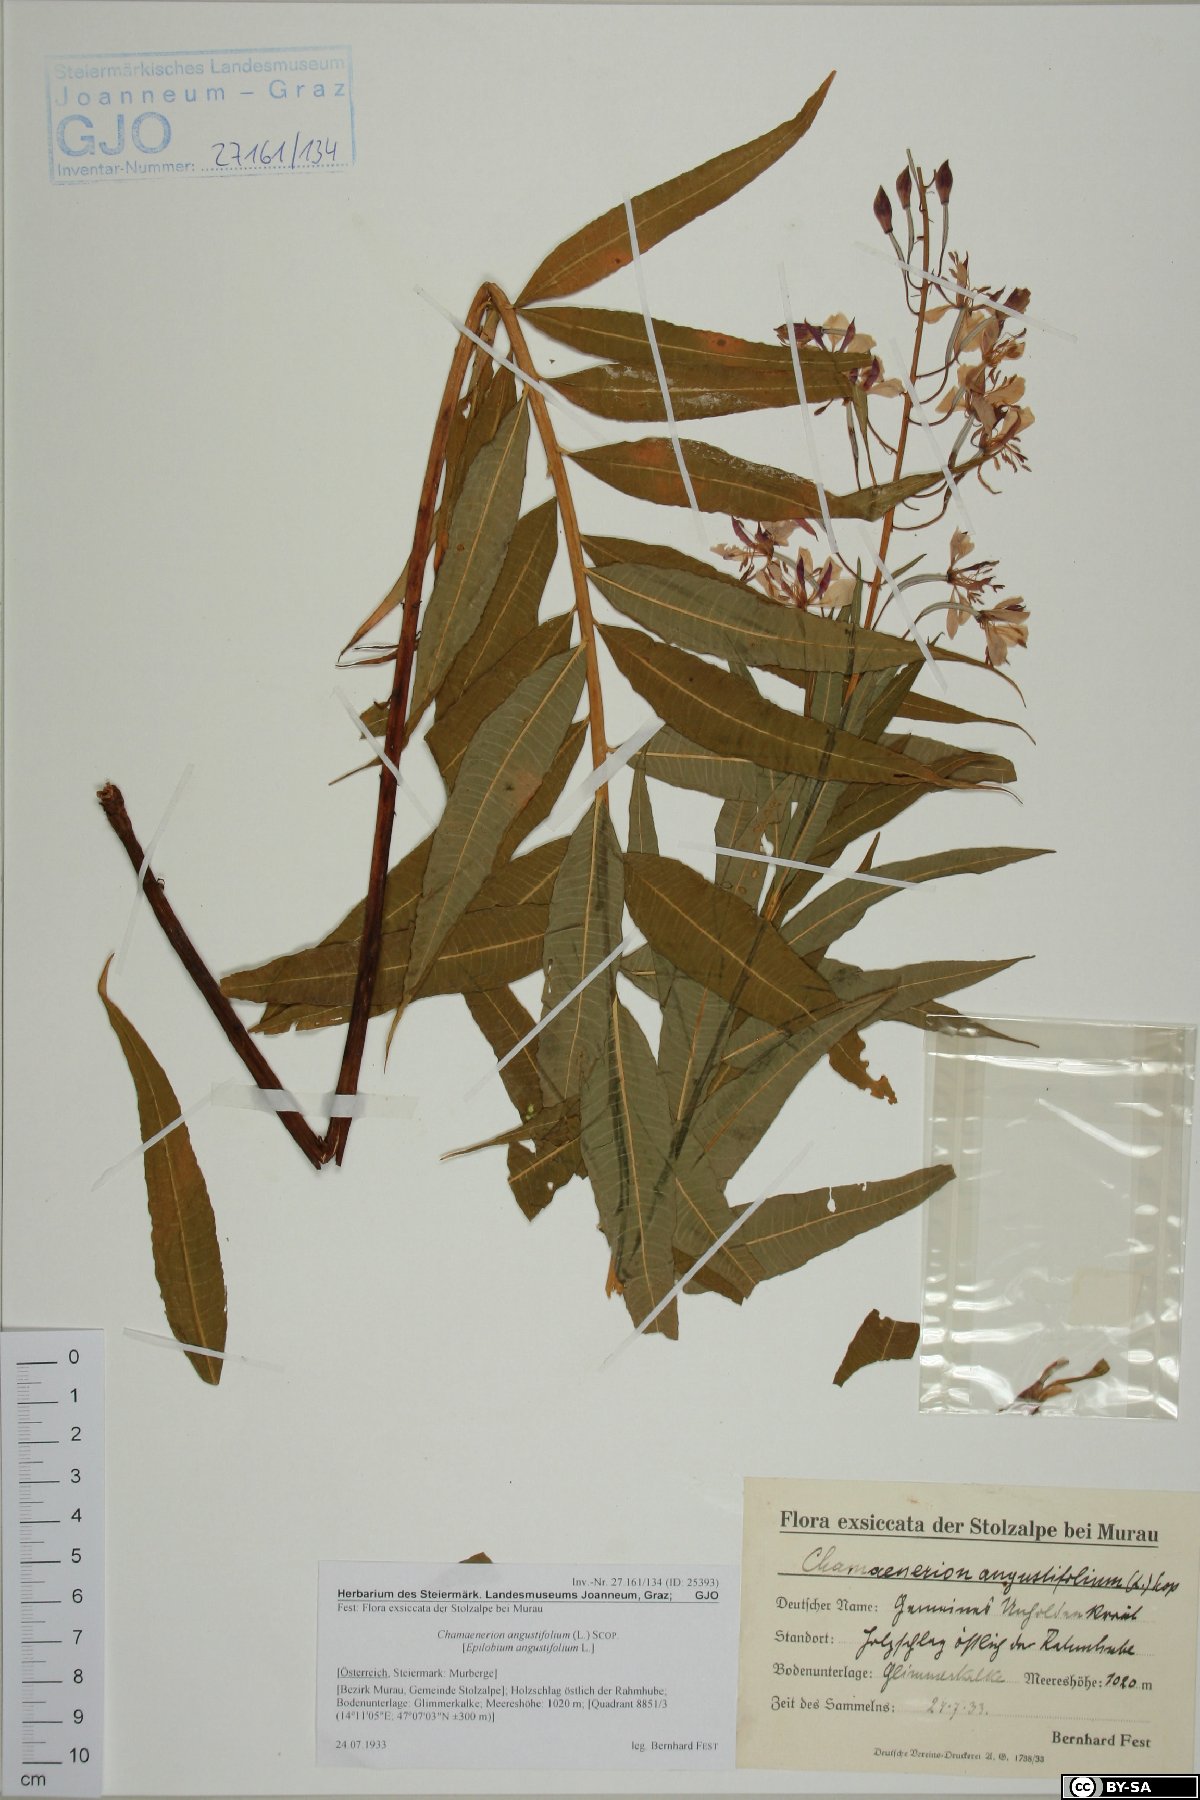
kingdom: Plantae
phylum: Tracheophyta
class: Magnoliopsida
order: Myrtales
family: Onagraceae
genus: Chamaenerion
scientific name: Chamaenerion angustifolium
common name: Fireweed
